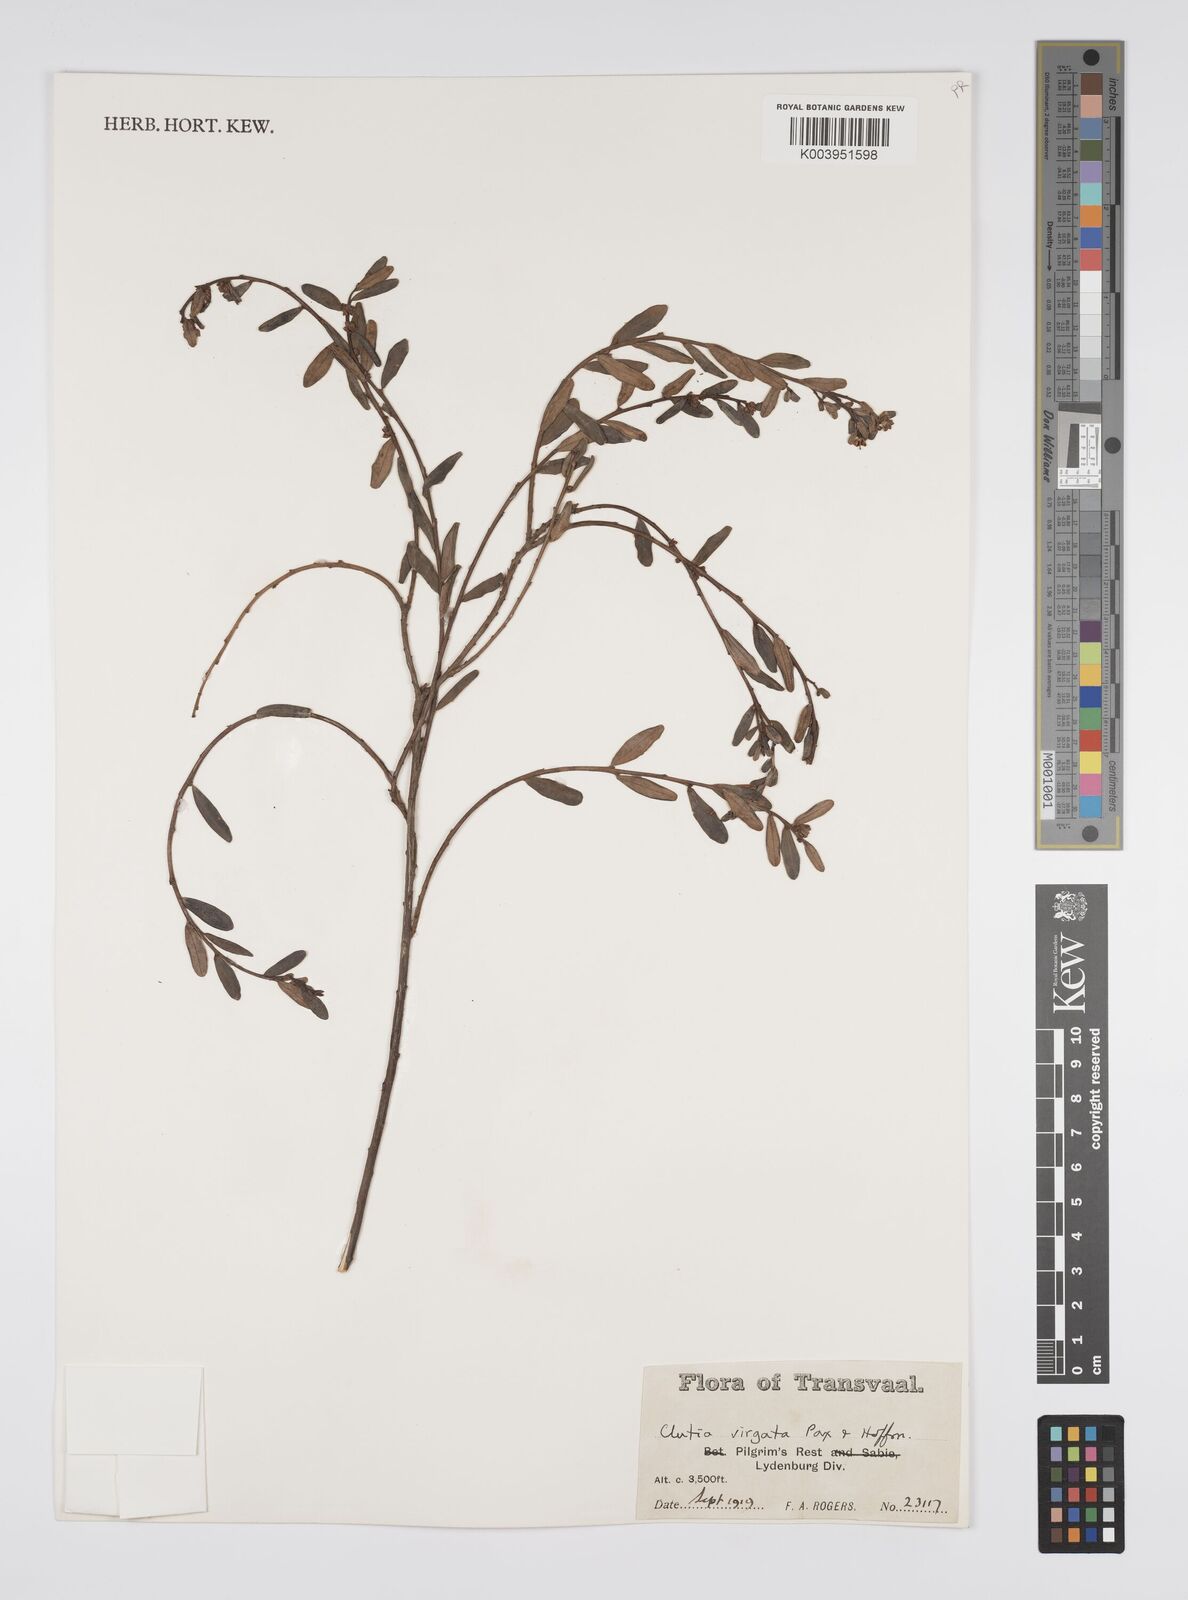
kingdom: Plantae
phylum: Tracheophyta
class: Magnoliopsida
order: Malpighiales
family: Peraceae
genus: Clutia
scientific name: Clutia virgata
